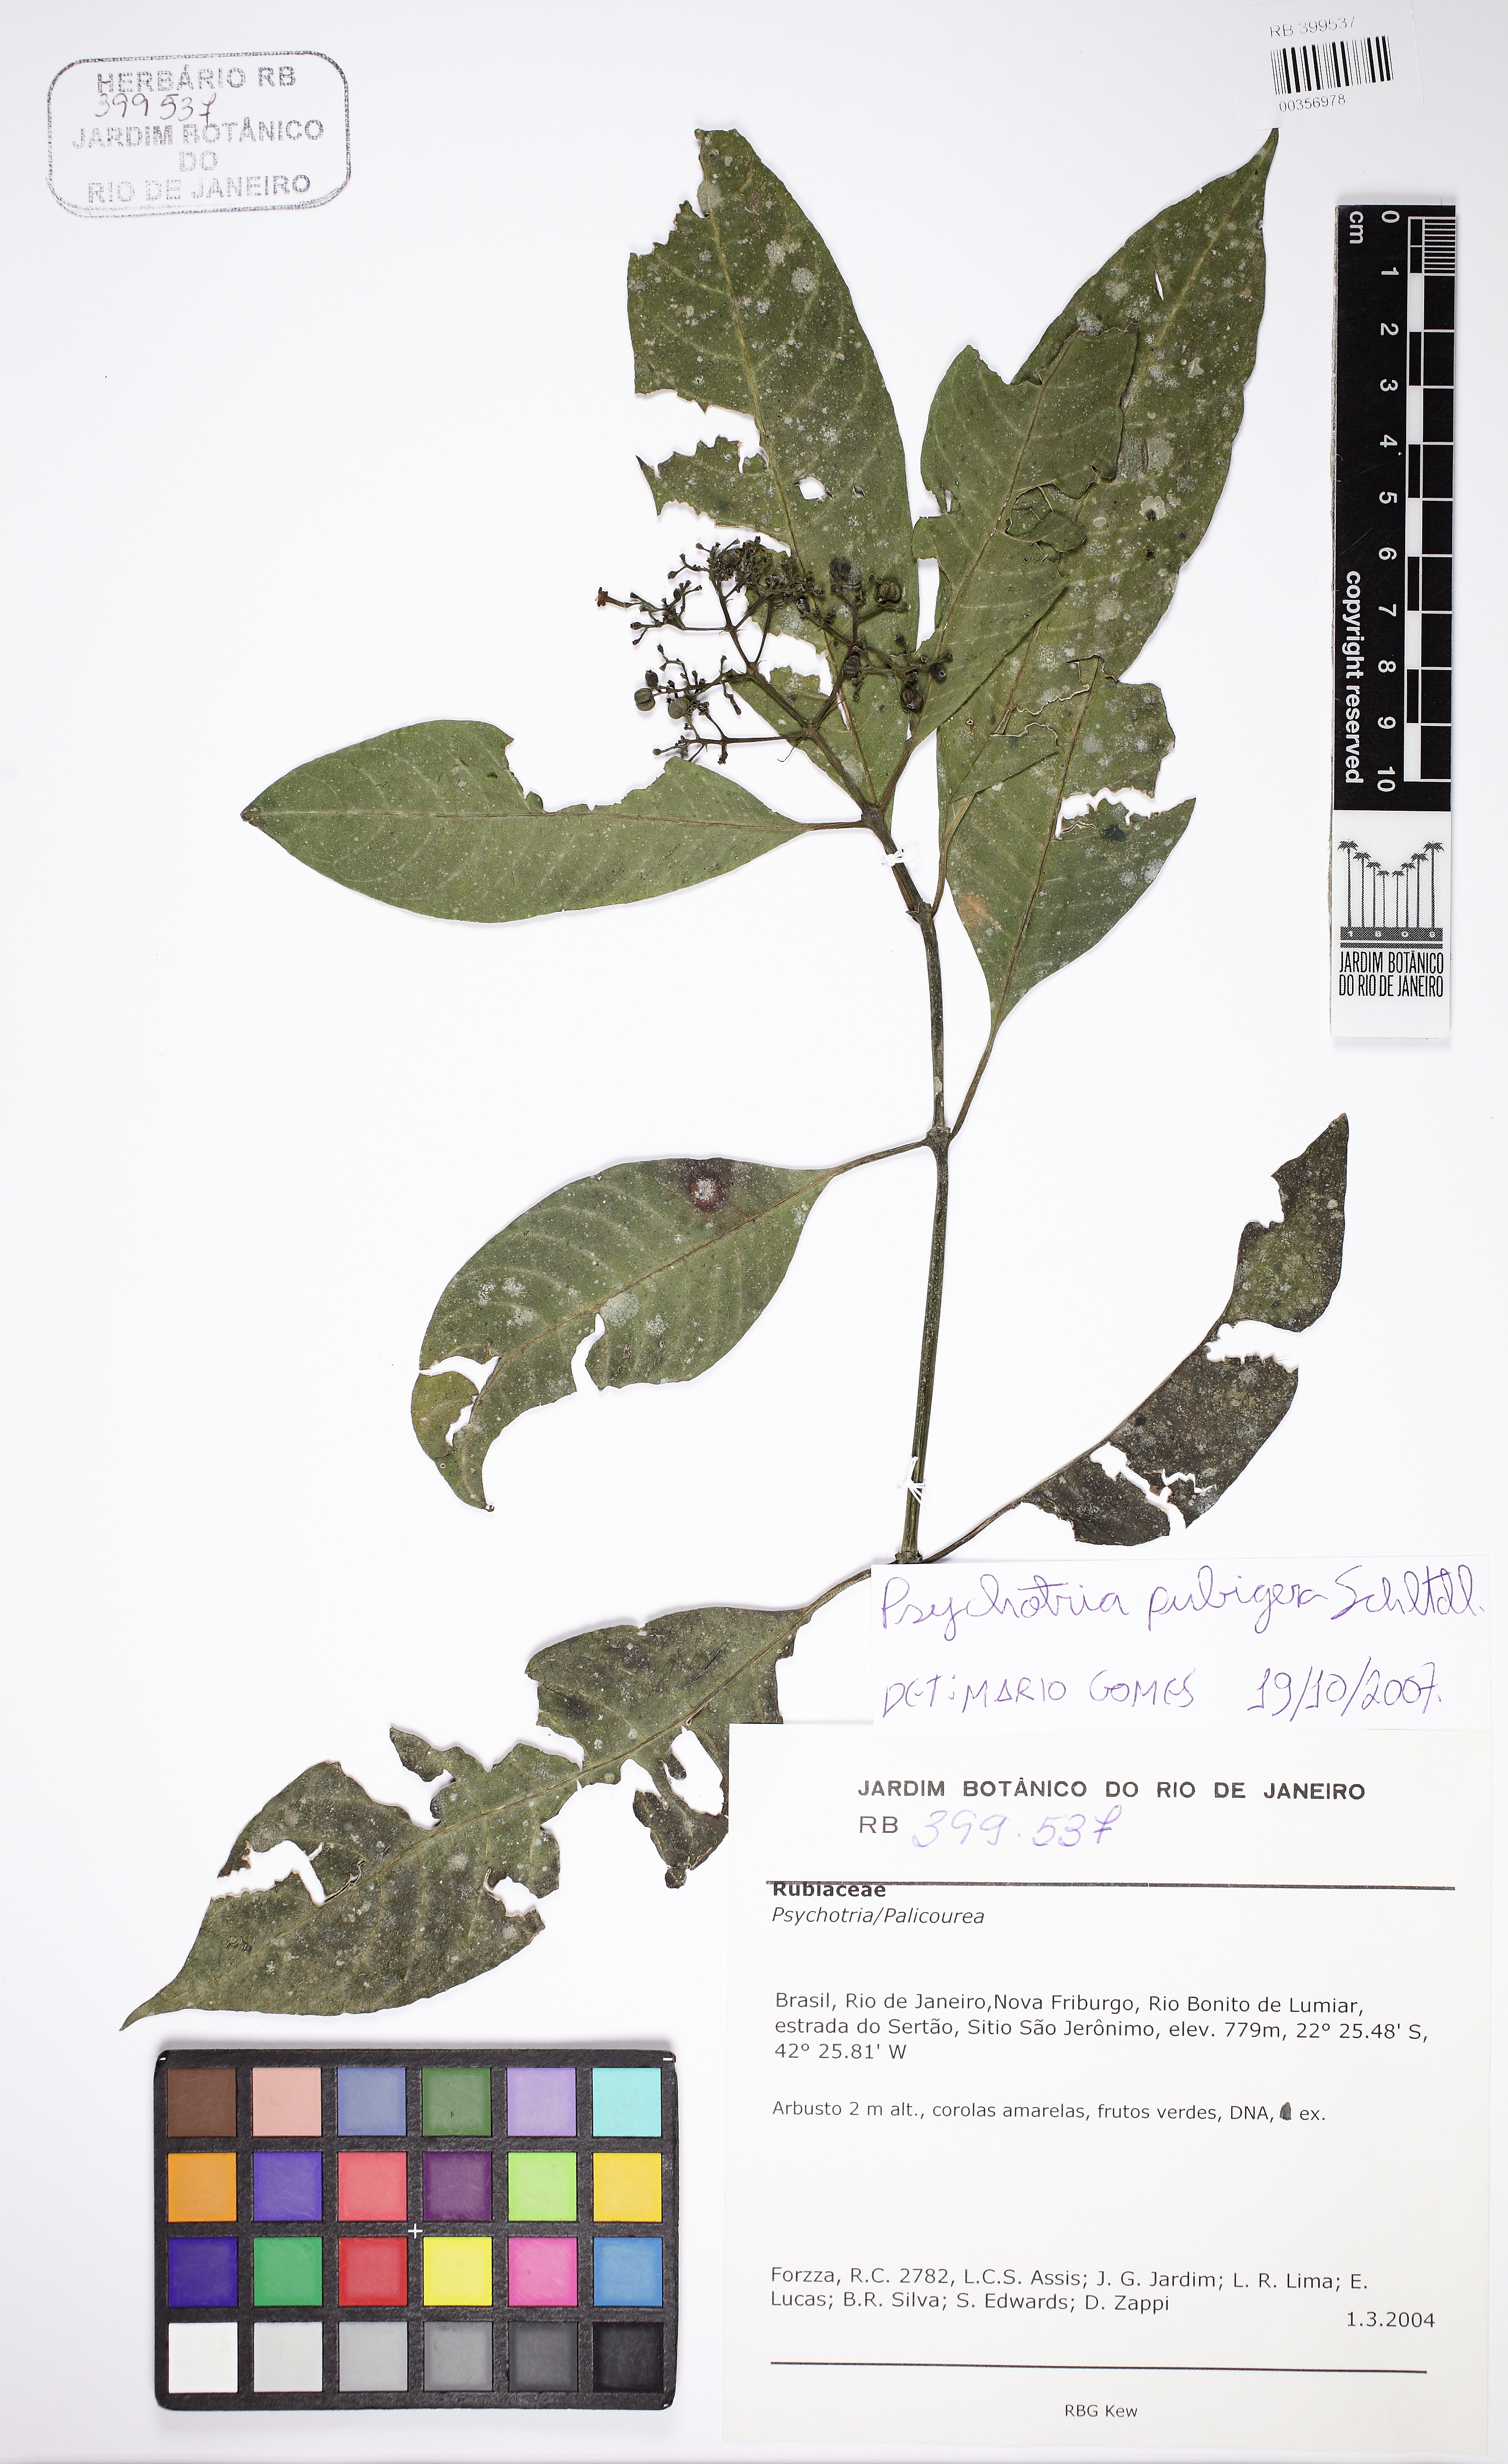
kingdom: Plantae
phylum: Tracheophyta
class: Magnoliopsida
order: Gentianales
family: Rubiaceae
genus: Psychotria
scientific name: Psychotria nemorosa
